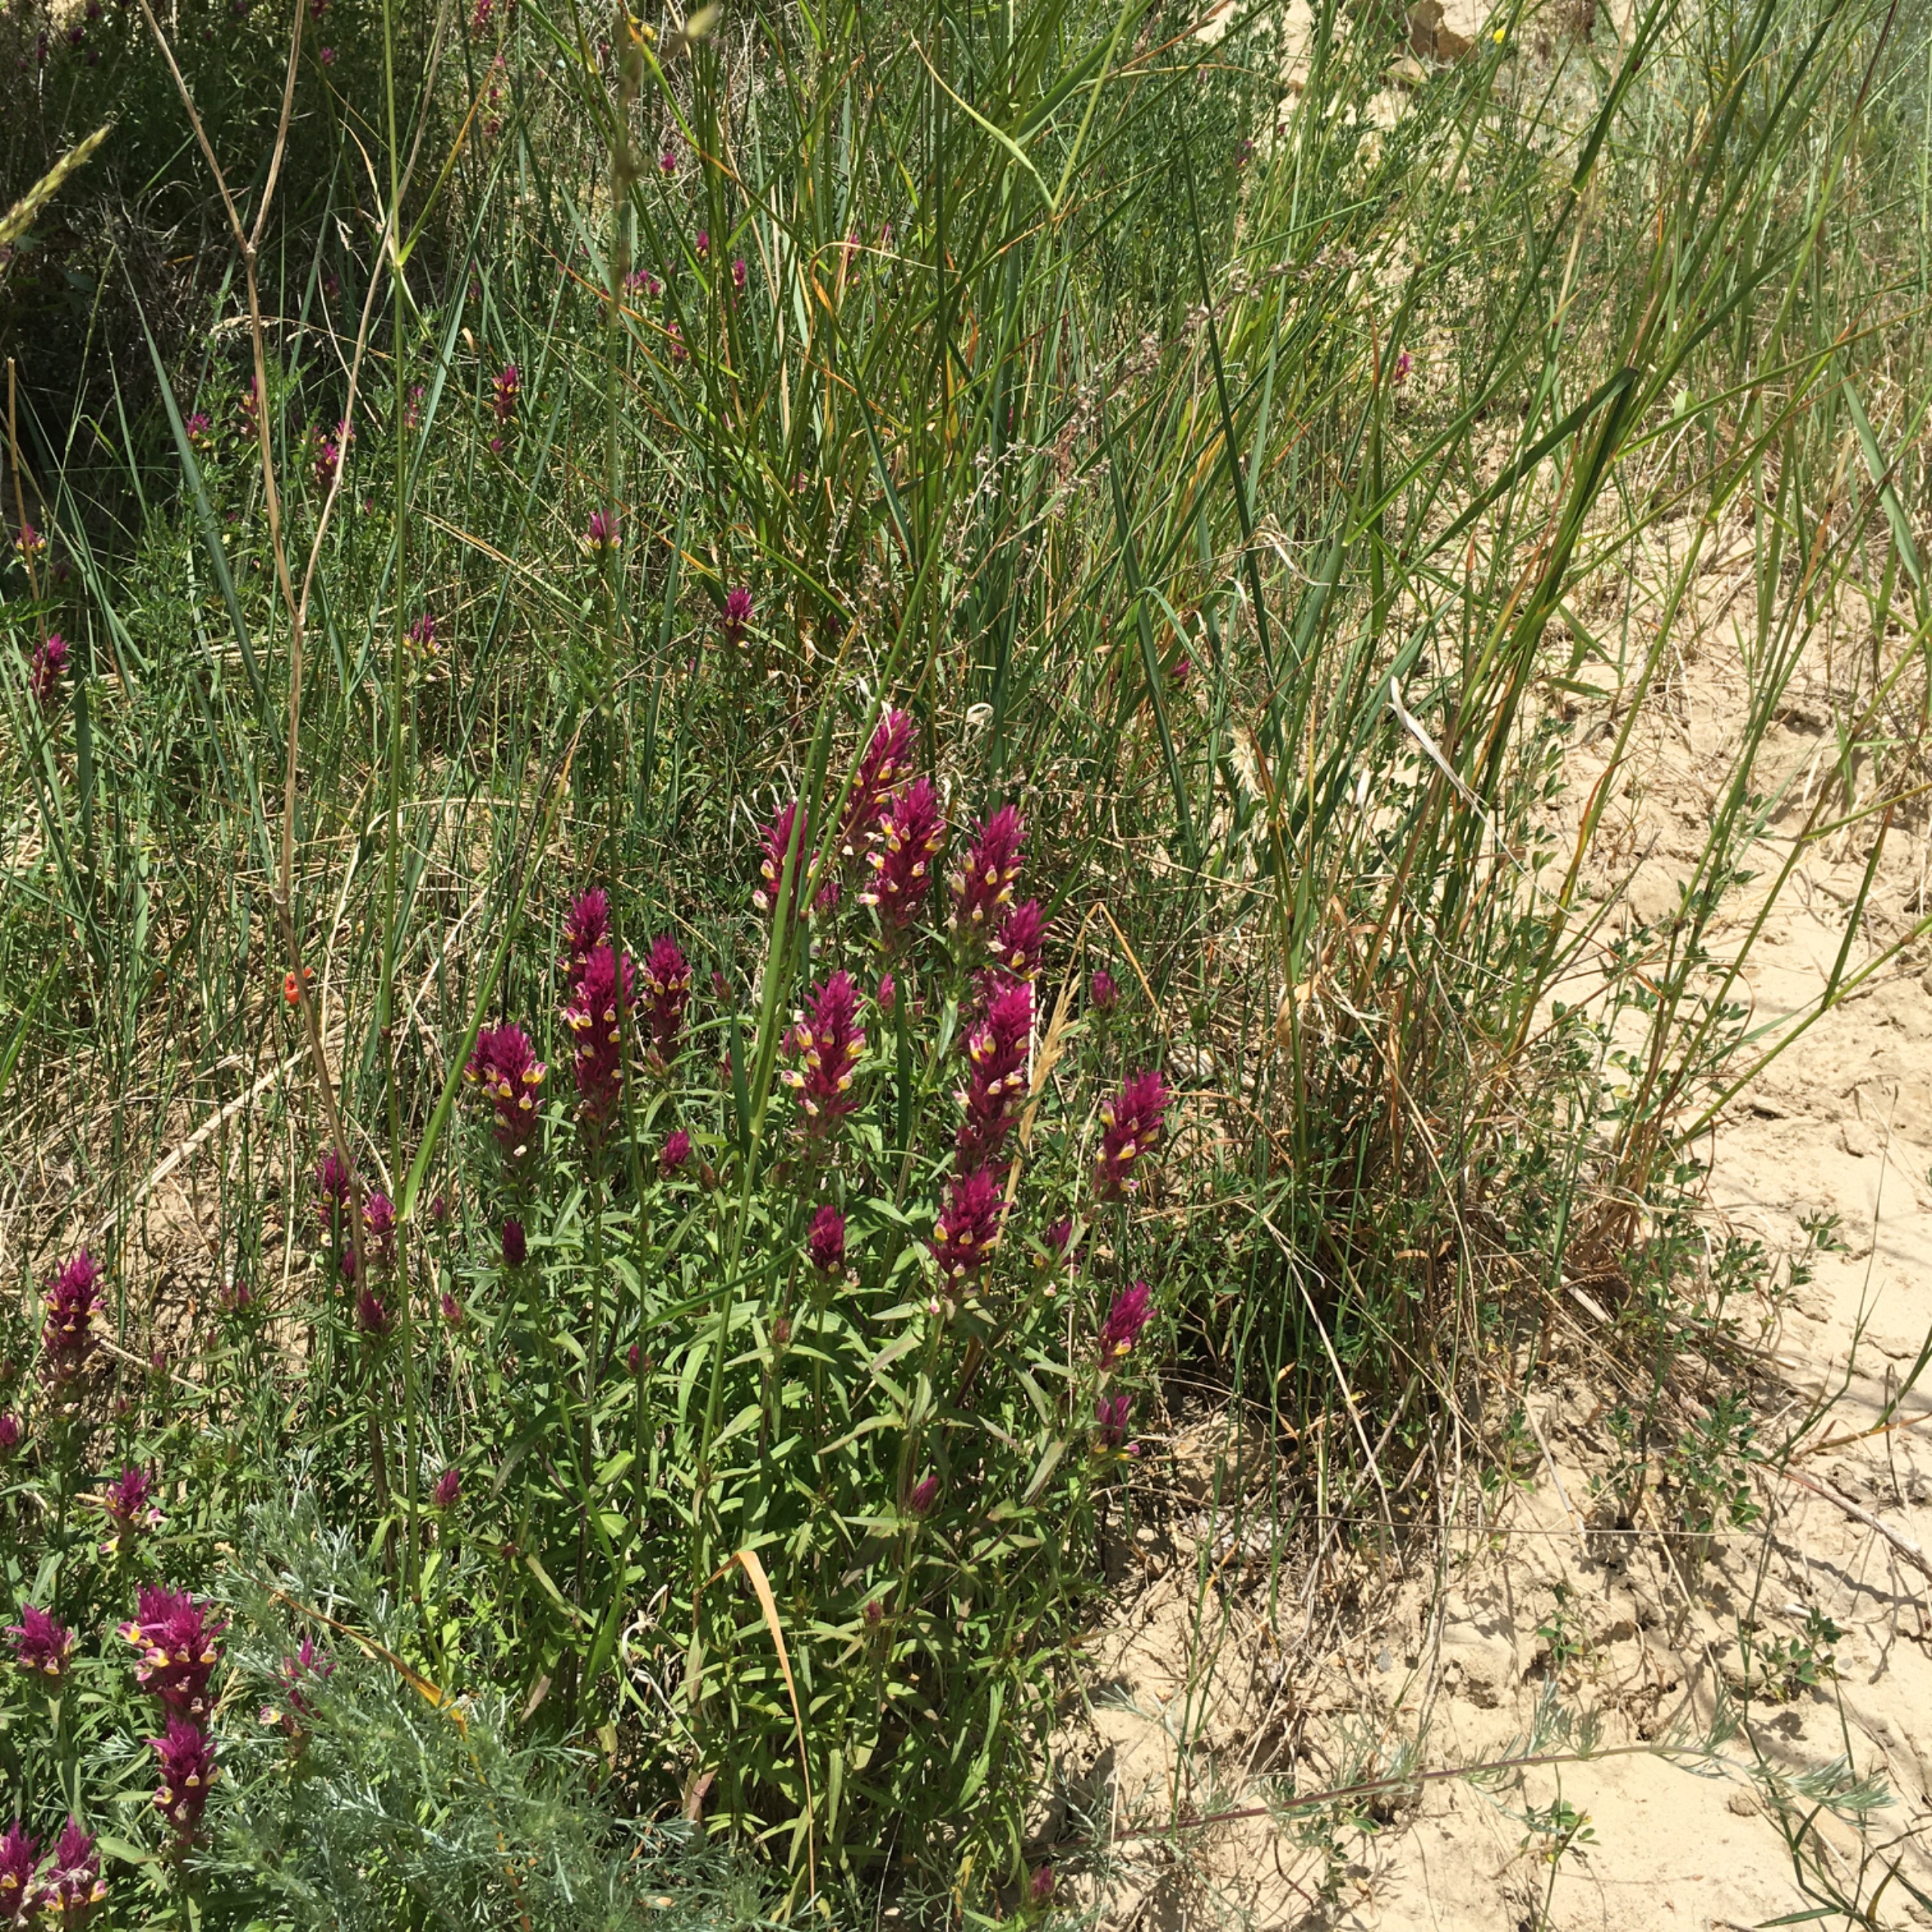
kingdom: Plantae
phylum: Tracheophyta
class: Magnoliopsida
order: Lamiales
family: Orobanchaceae
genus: Melampyrum
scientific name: Melampyrum arvense
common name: Ager-kohvede
